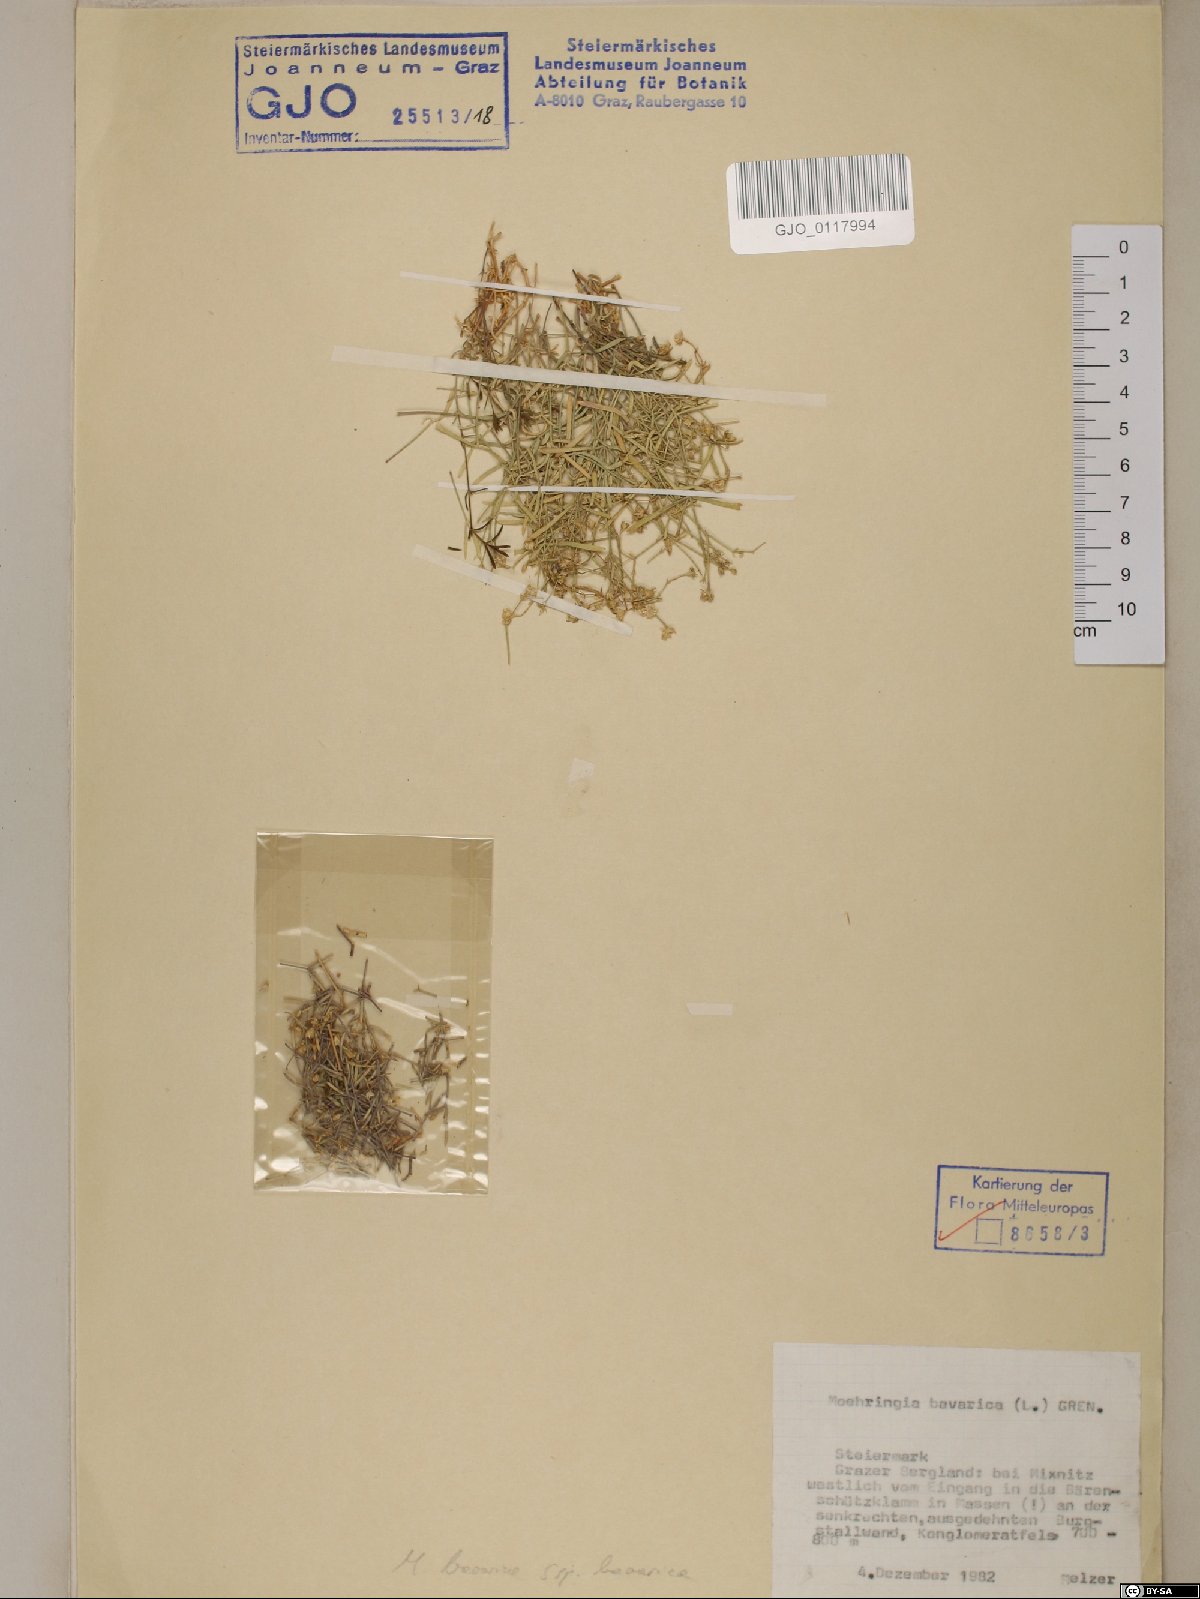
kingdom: Plantae
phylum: Tracheophyta
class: Magnoliopsida
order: Caryophyllales
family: Caryophyllaceae
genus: Moehringia
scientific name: Moehringia bavarica
